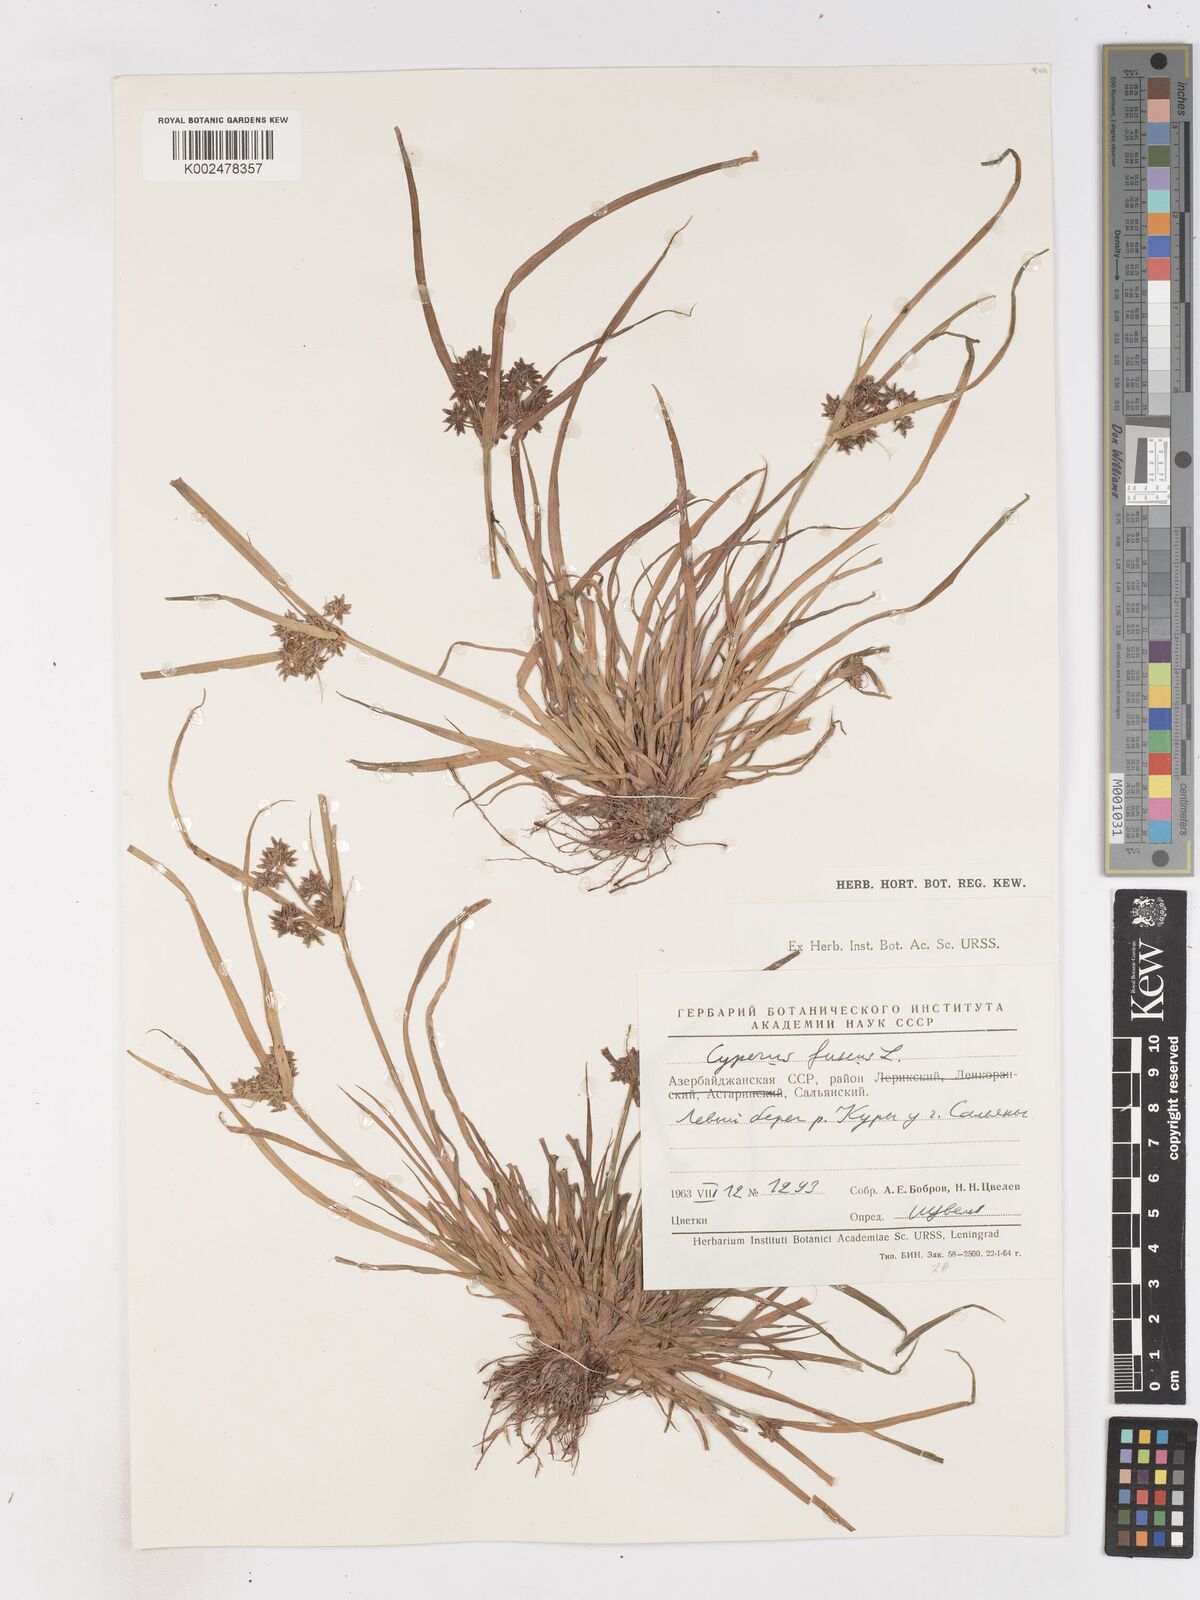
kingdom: Plantae
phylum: Tracheophyta
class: Liliopsida
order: Poales
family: Cyperaceae
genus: Cyperus
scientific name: Cyperus fuscus
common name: Brown galingale
